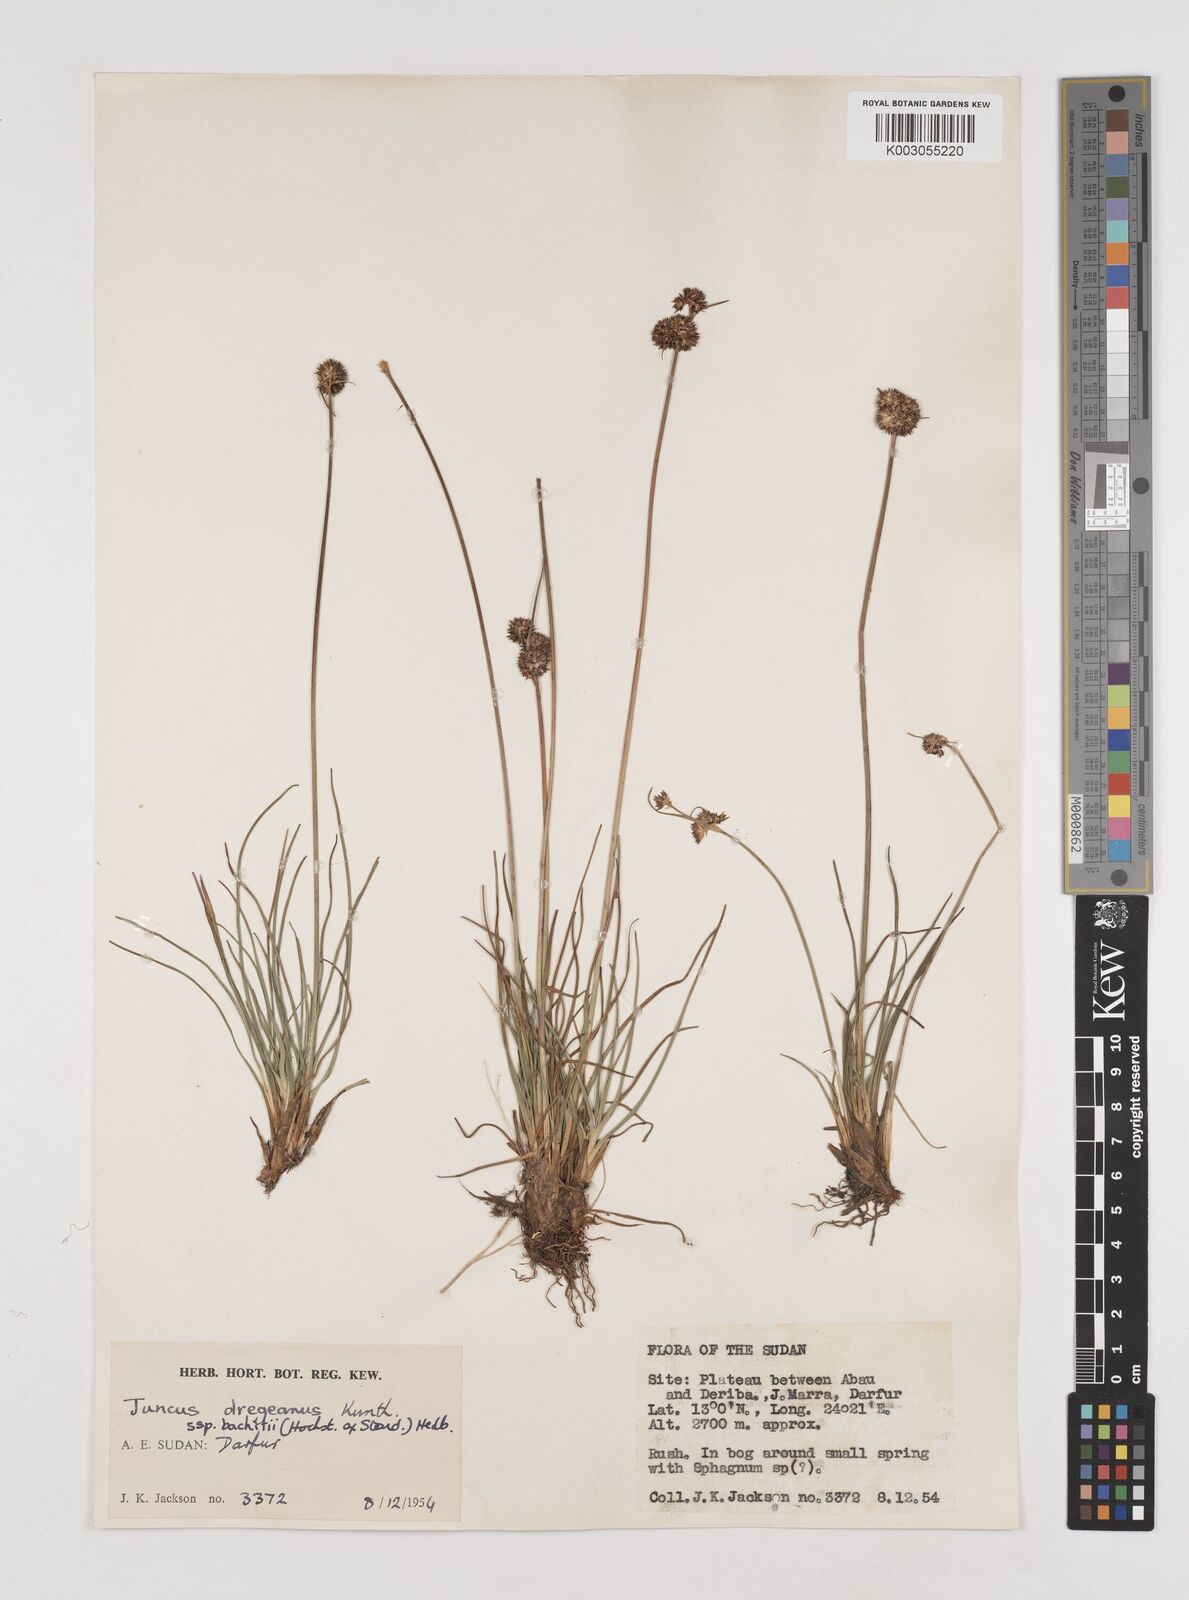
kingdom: Plantae
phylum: Tracheophyta
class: Liliopsida
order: Poales
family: Juncaceae
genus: Juncus
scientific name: Juncus dregeanus
